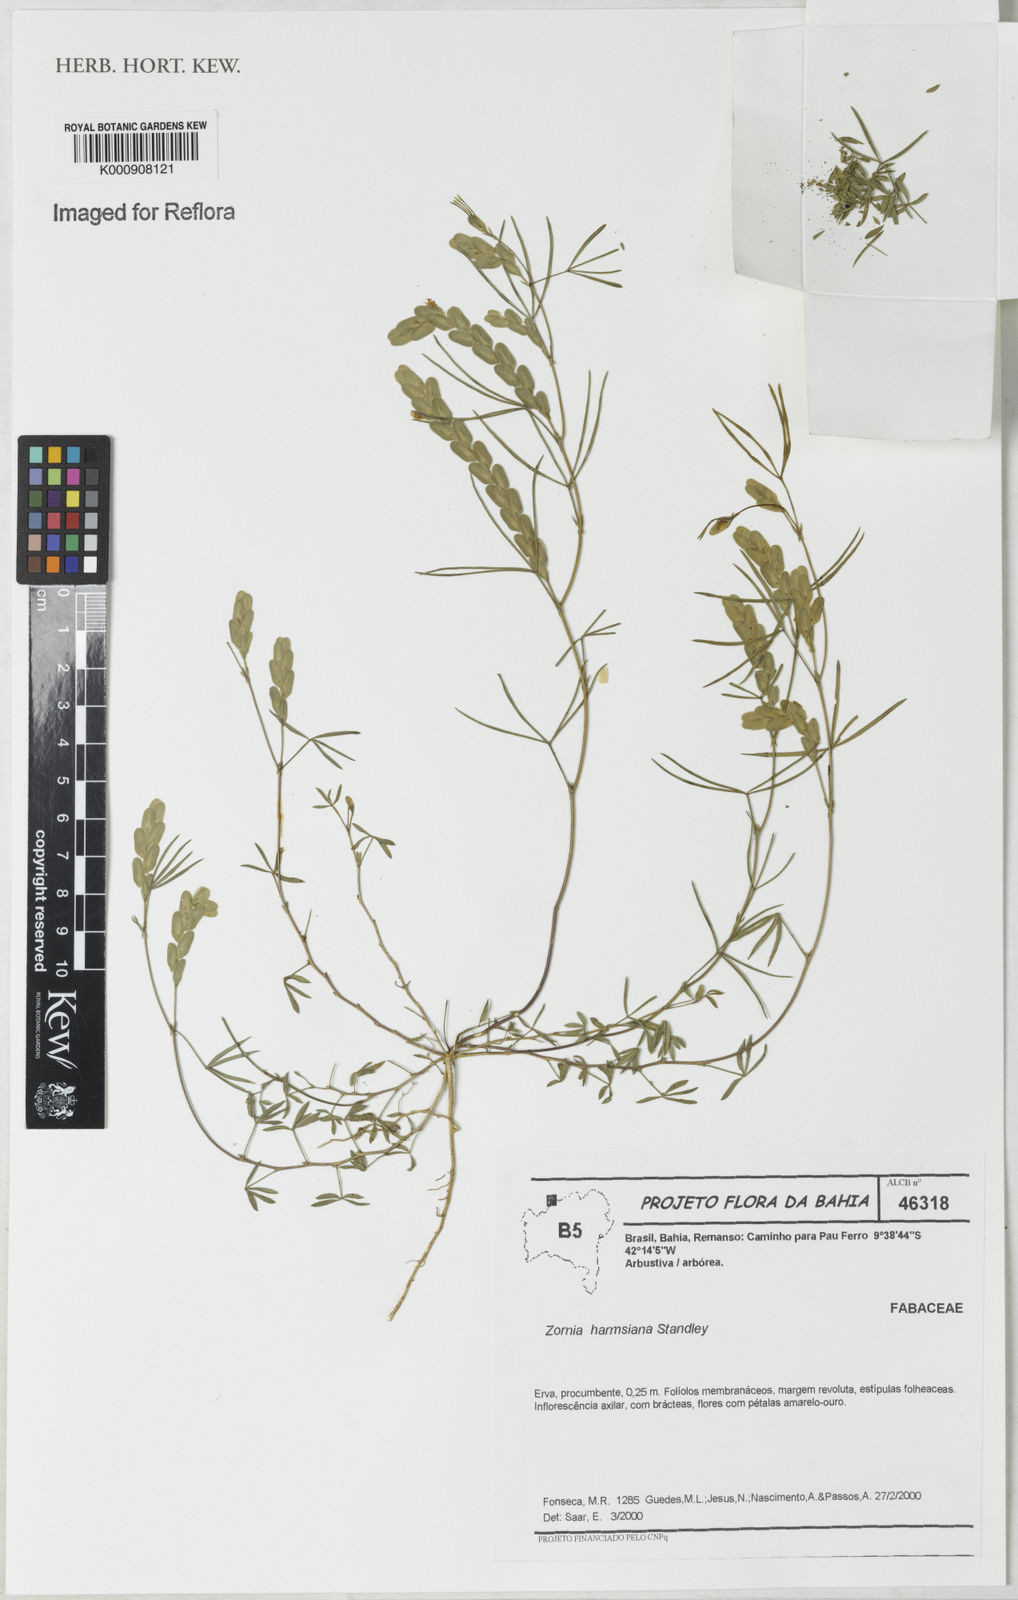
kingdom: Plantae
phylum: Tracheophyta
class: Magnoliopsida
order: Fabales
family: Fabaceae
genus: Zornia
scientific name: Zornia harmsiana
